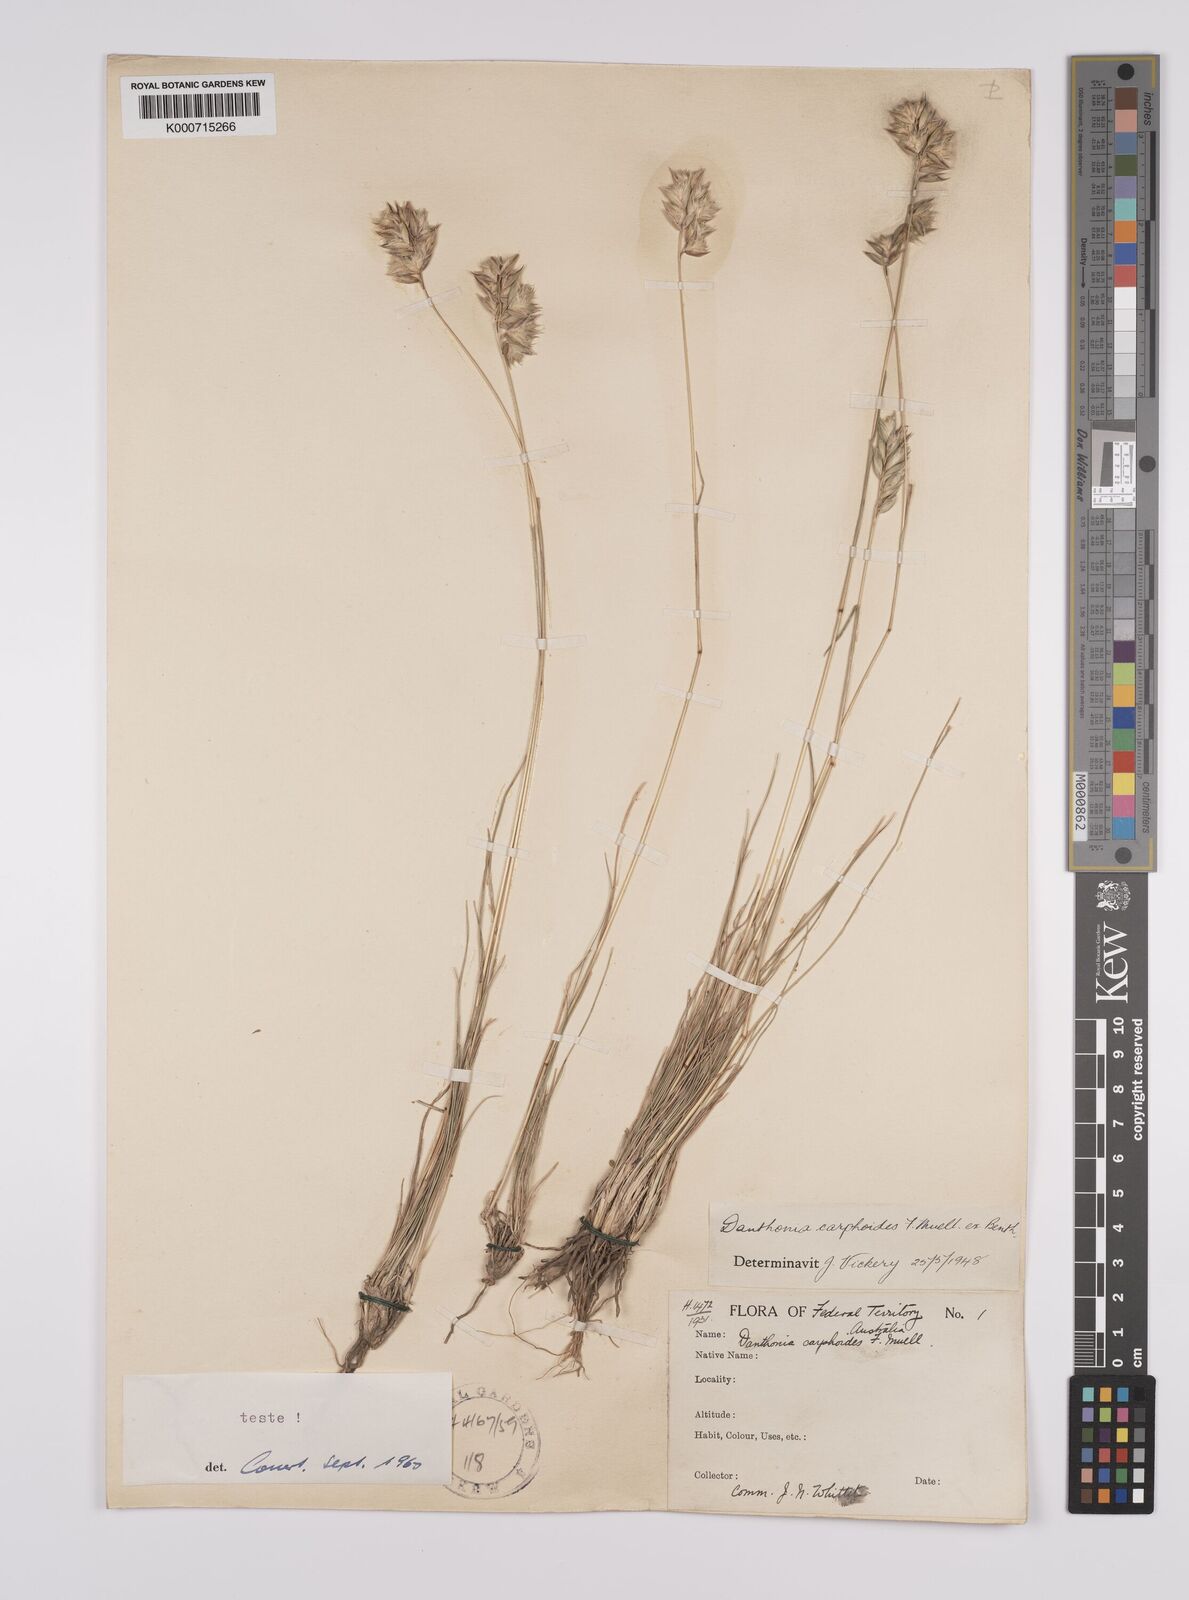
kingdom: Plantae
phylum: Tracheophyta
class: Liliopsida
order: Poales
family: Poaceae
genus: Rytidosperma
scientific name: Rytidosperma carphoides
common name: Short wallaby grass
